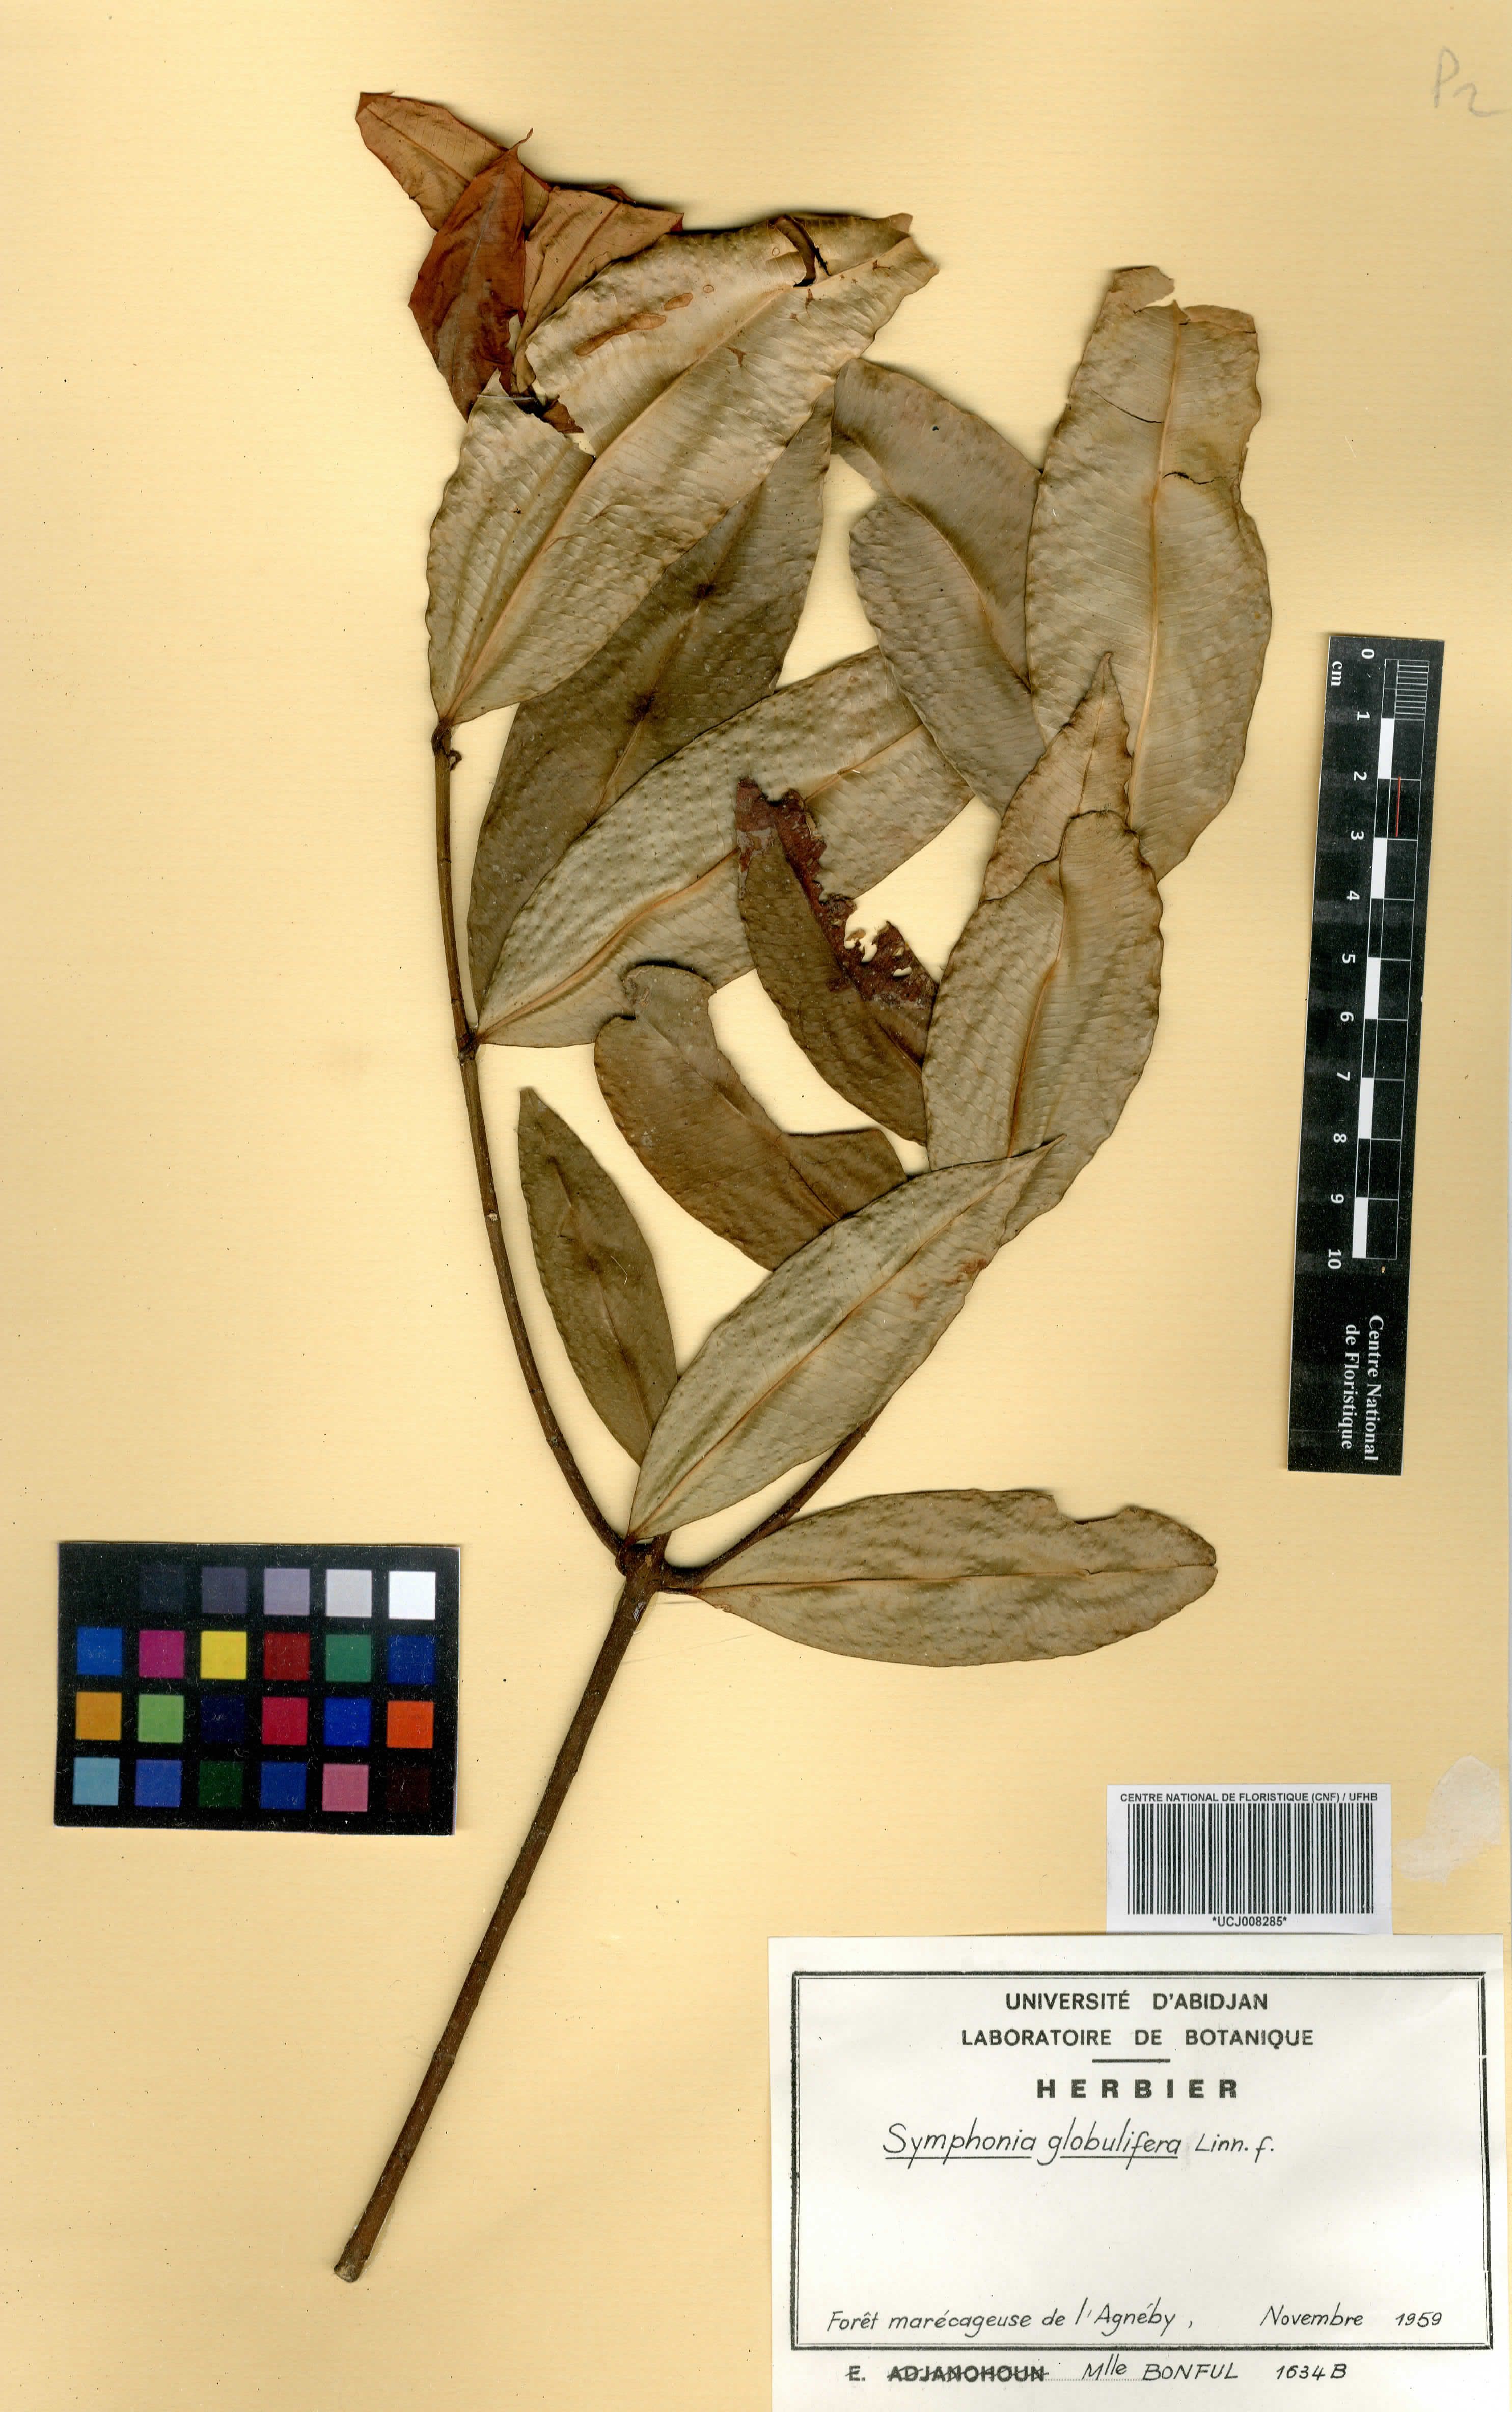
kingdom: Plantae
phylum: Tracheophyta
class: Magnoliopsida
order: Malpighiales
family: Clusiaceae
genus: Symphonia
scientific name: Symphonia globulifera
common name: Boarwood
